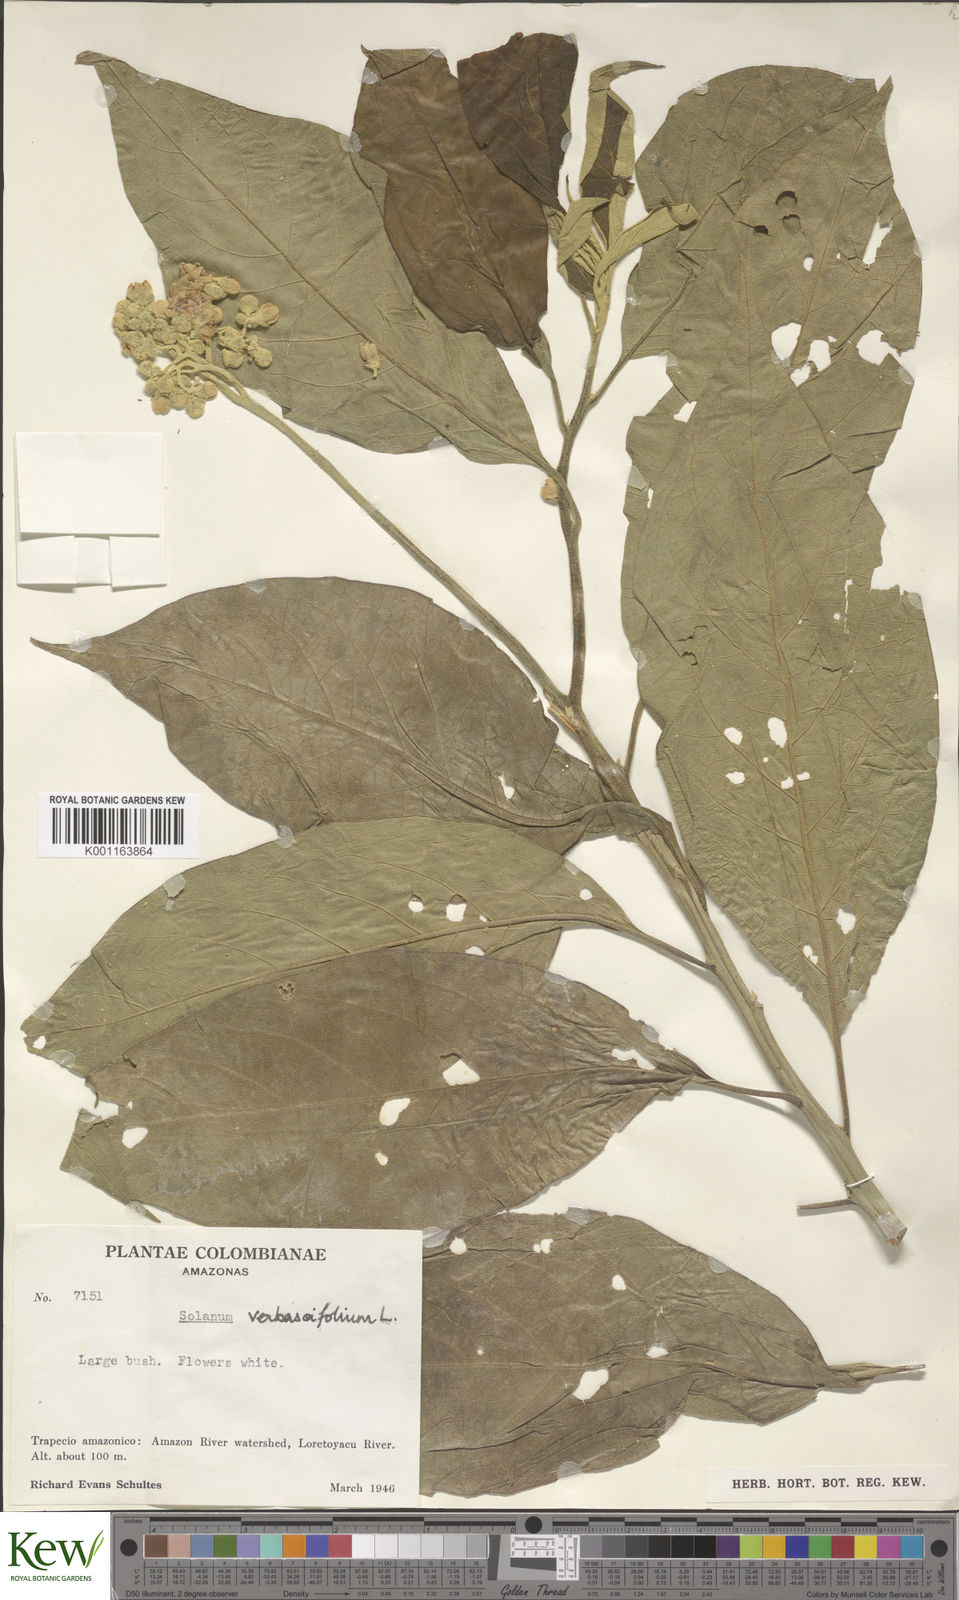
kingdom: Plantae
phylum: Tracheophyta
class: Magnoliopsida
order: Solanales
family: Solanaceae
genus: Solanum
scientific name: Solanum erianthum
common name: Tobacco-tree
